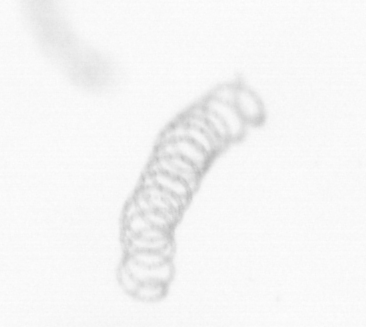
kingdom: Chromista
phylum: Ochrophyta
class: Bacillariophyceae
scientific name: Bacillariophyceae
